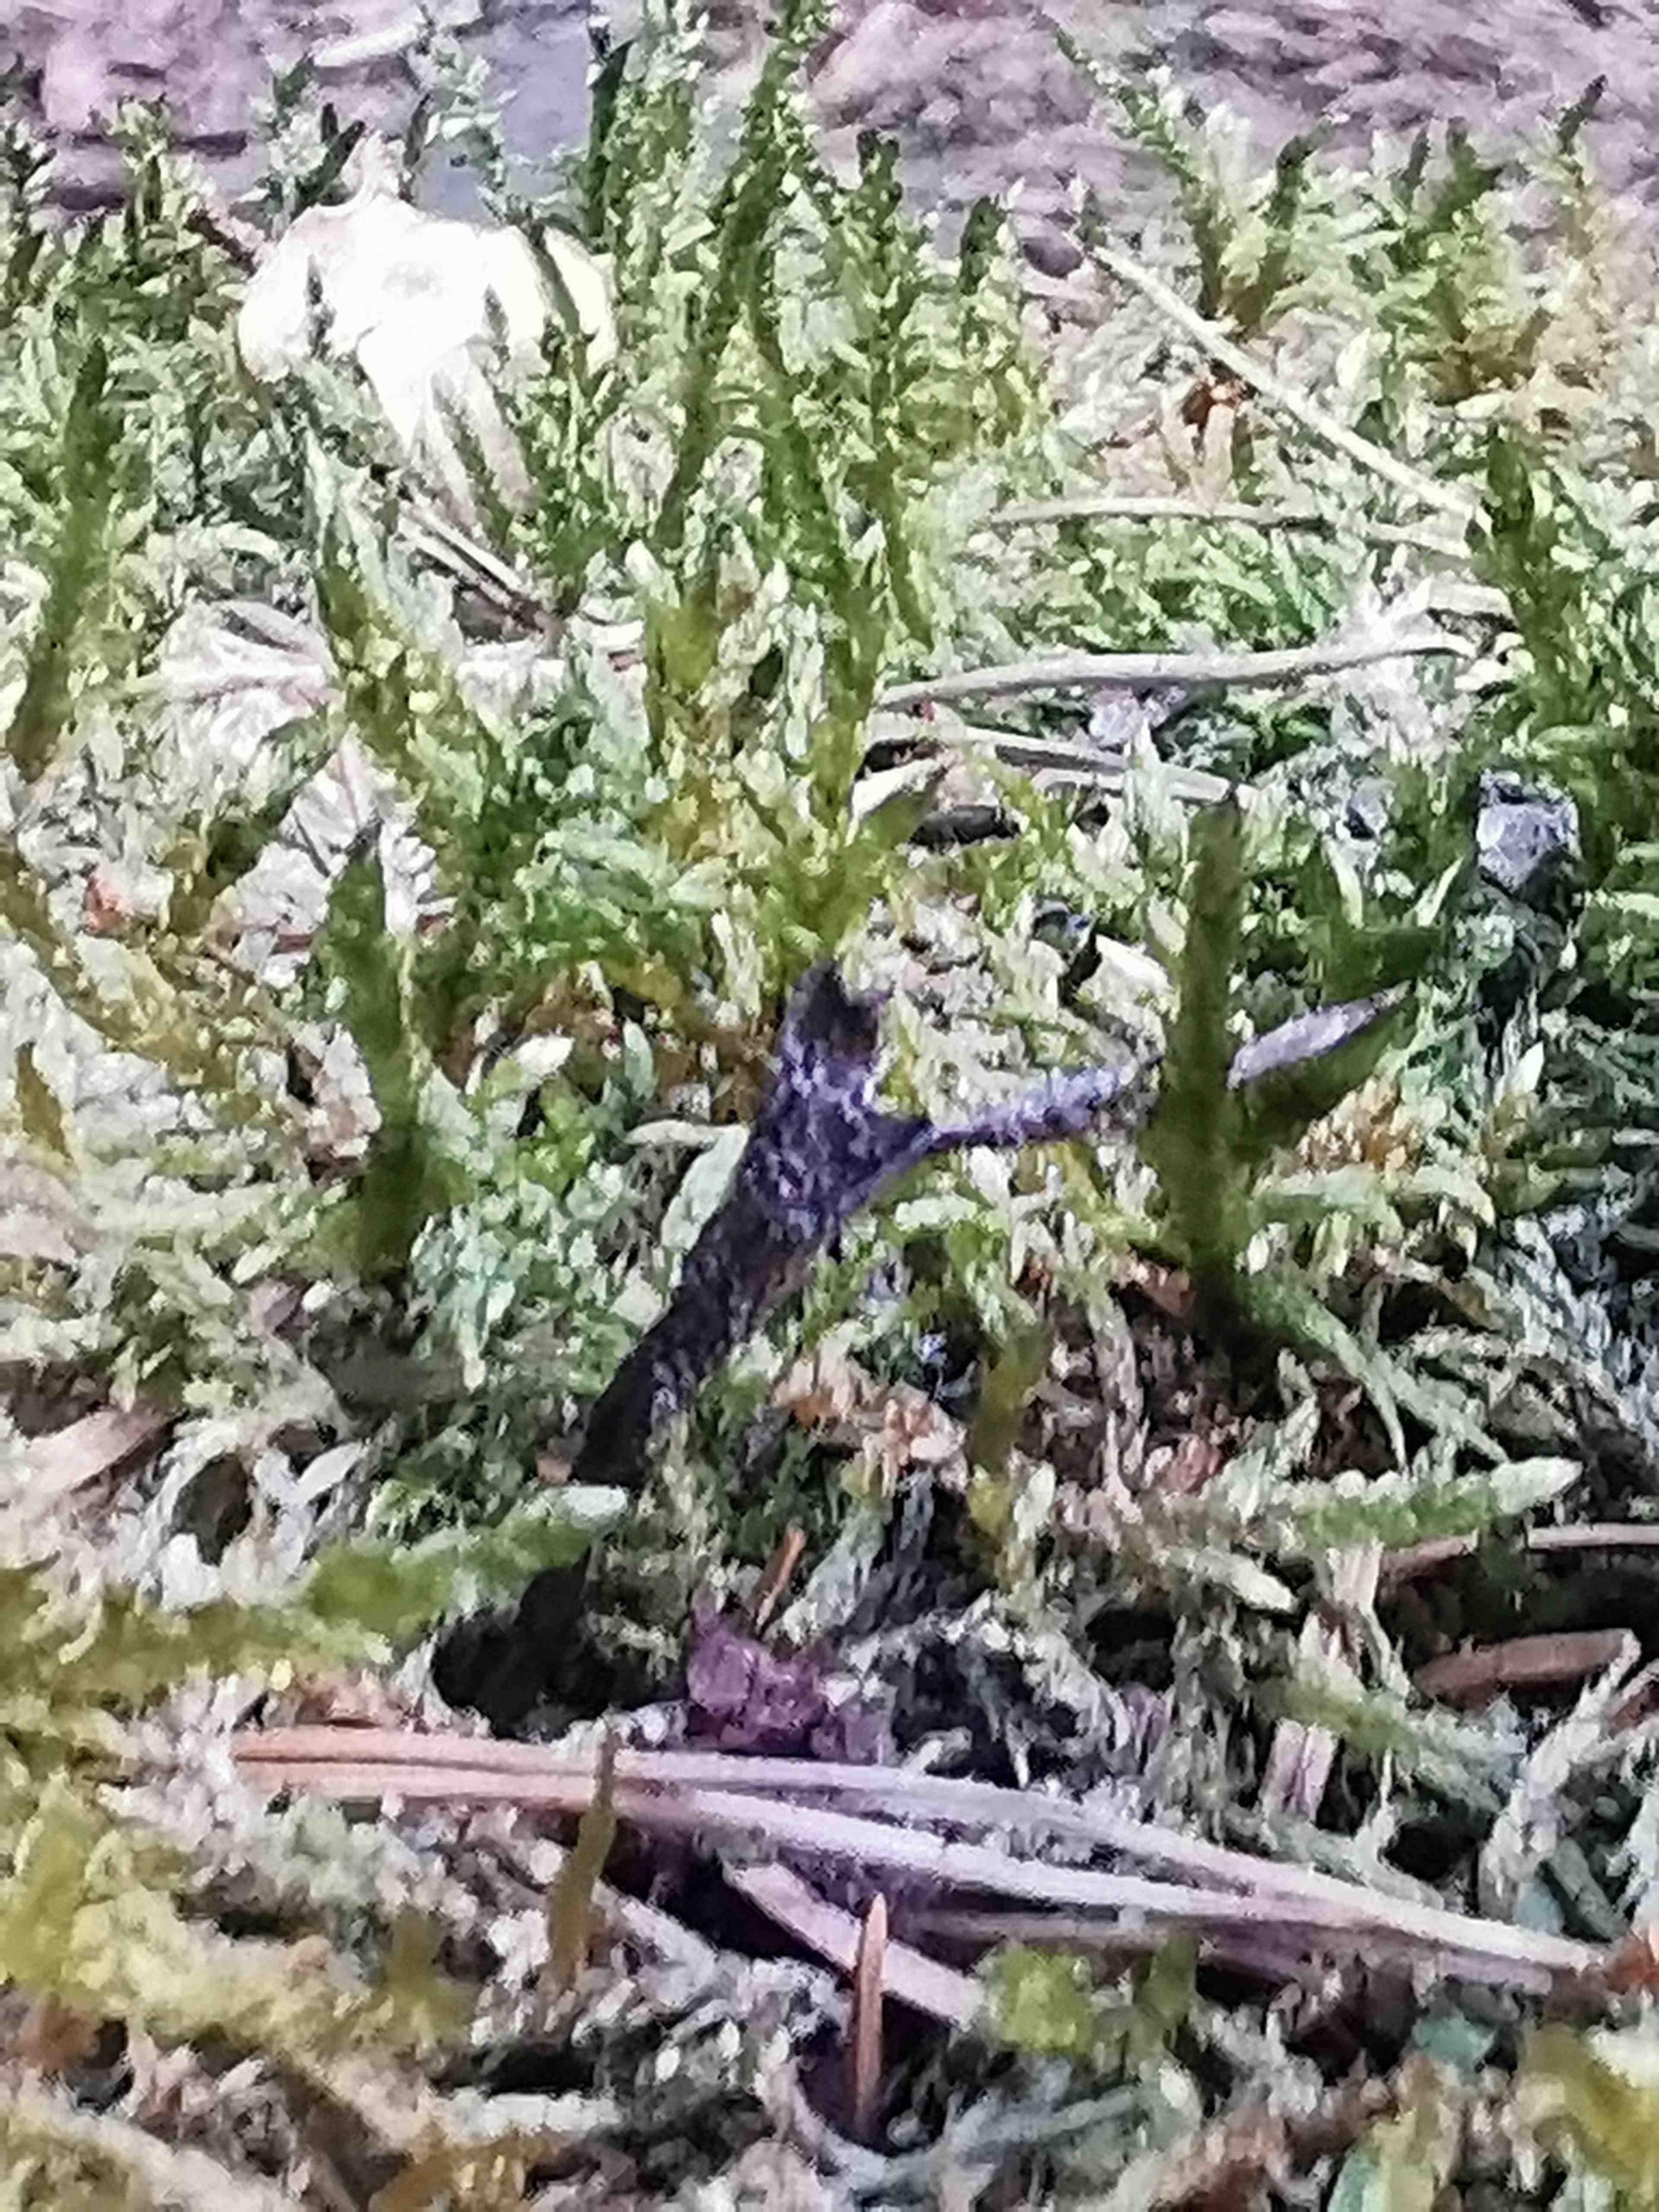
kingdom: Fungi
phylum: Ascomycota
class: Sordariomycetes
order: Xylariales
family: Xylariaceae
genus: Xylaria
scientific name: Xylaria hypoxylon
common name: grenet stødsvamp
